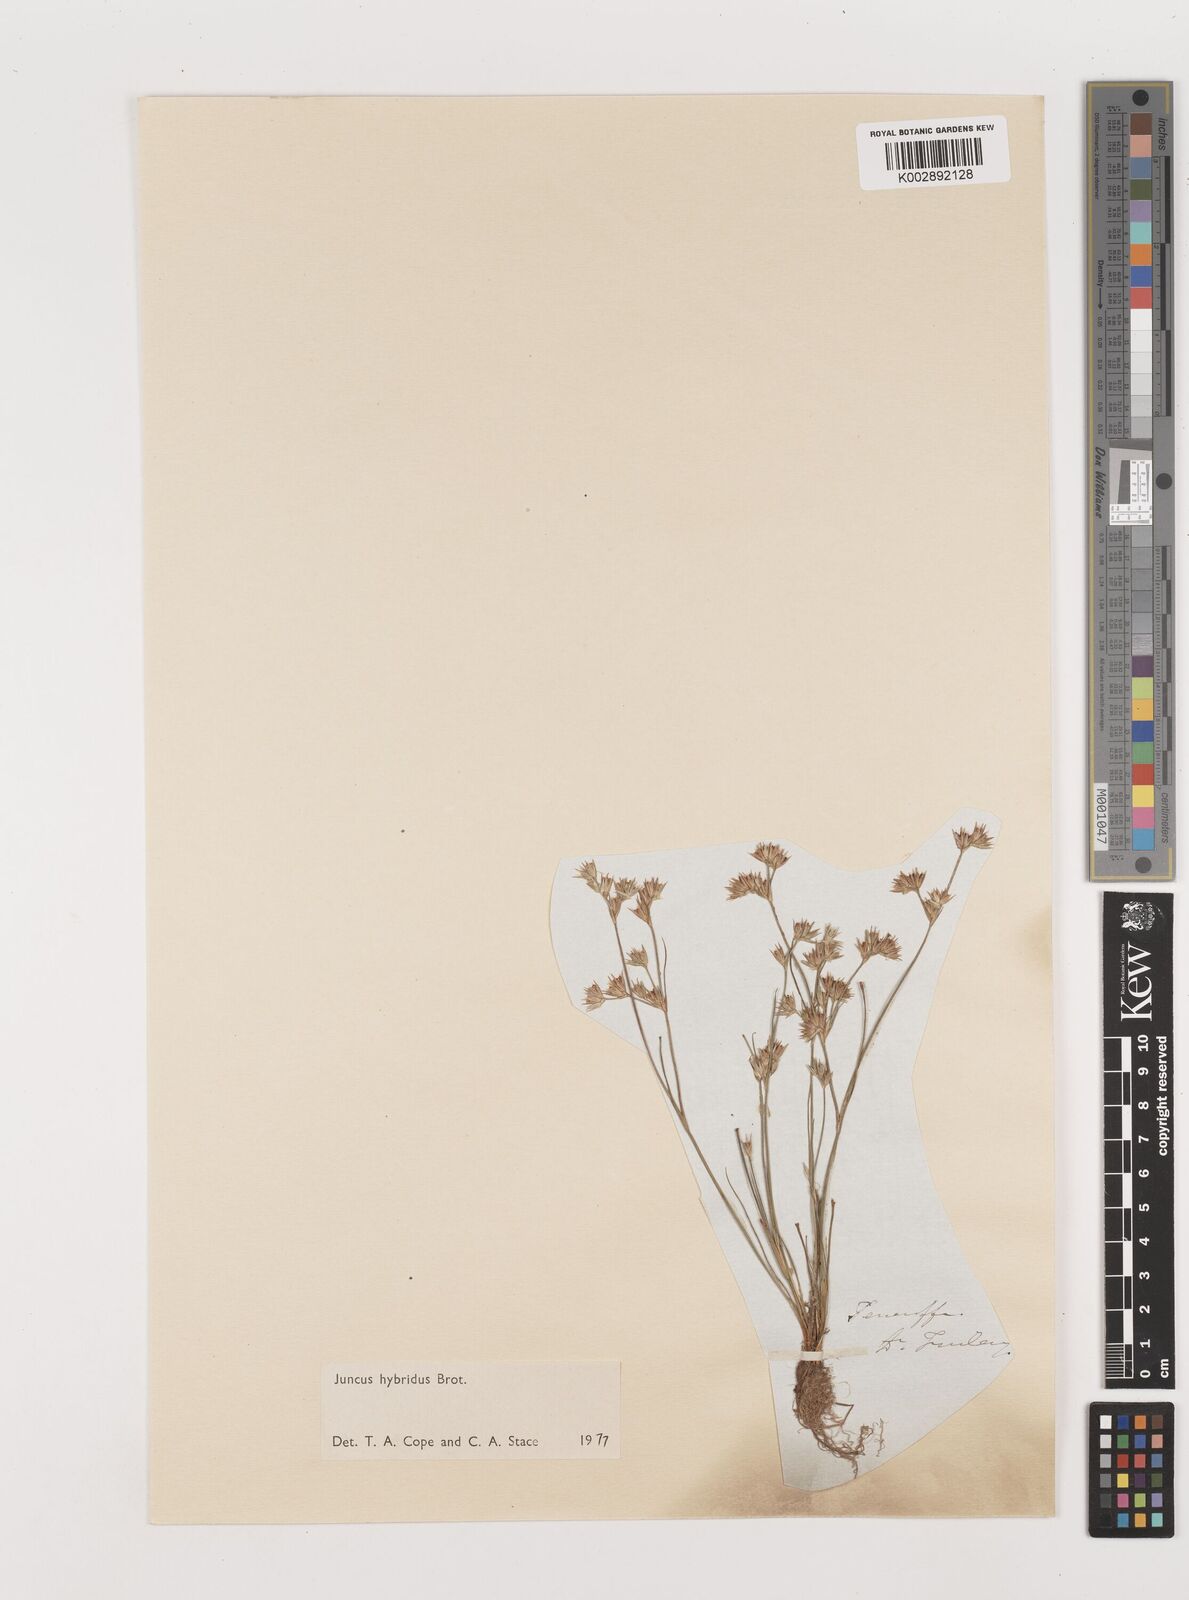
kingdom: Plantae
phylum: Tracheophyta
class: Liliopsida
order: Poales
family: Juncaceae
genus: Juncus
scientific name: Juncus hybridus
